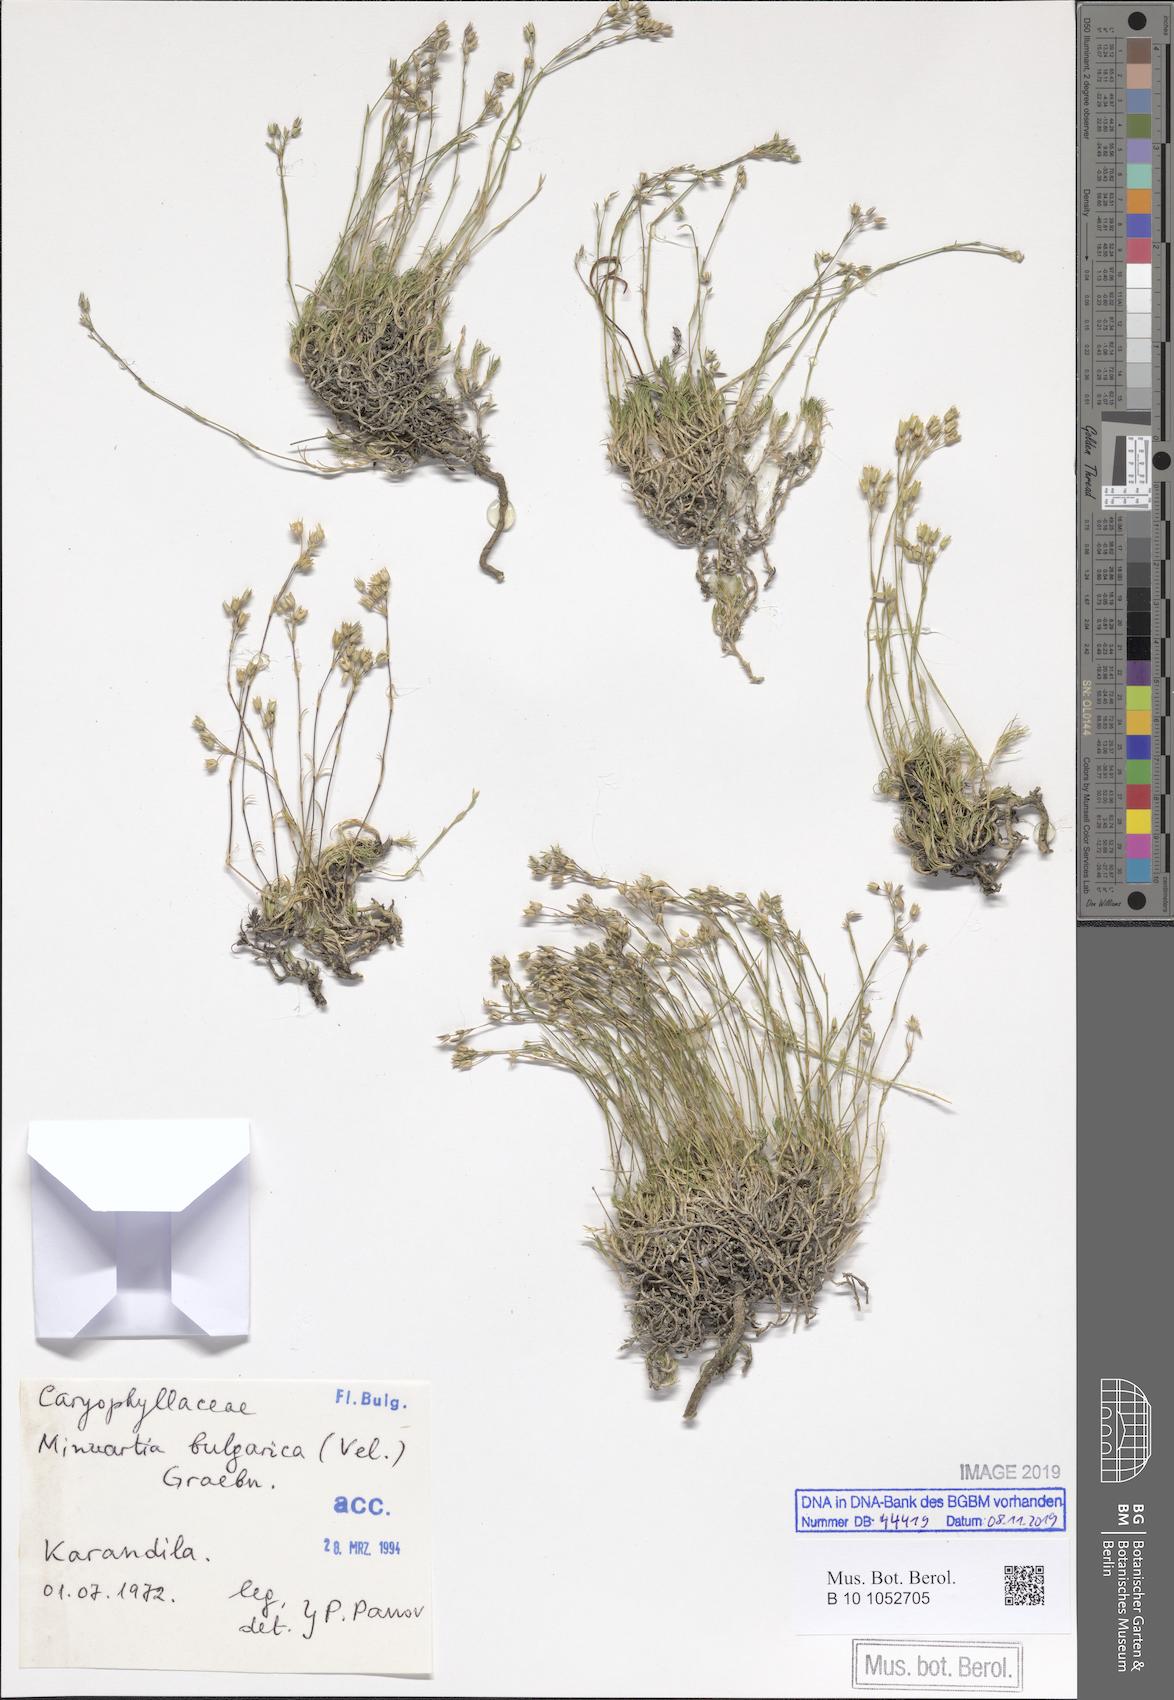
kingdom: Plantae
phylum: Tracheophyta
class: Magnoliopsida
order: Caryophyllales
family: Caryophyllaceae
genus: Minuartia
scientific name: Minuartia bulgarica
